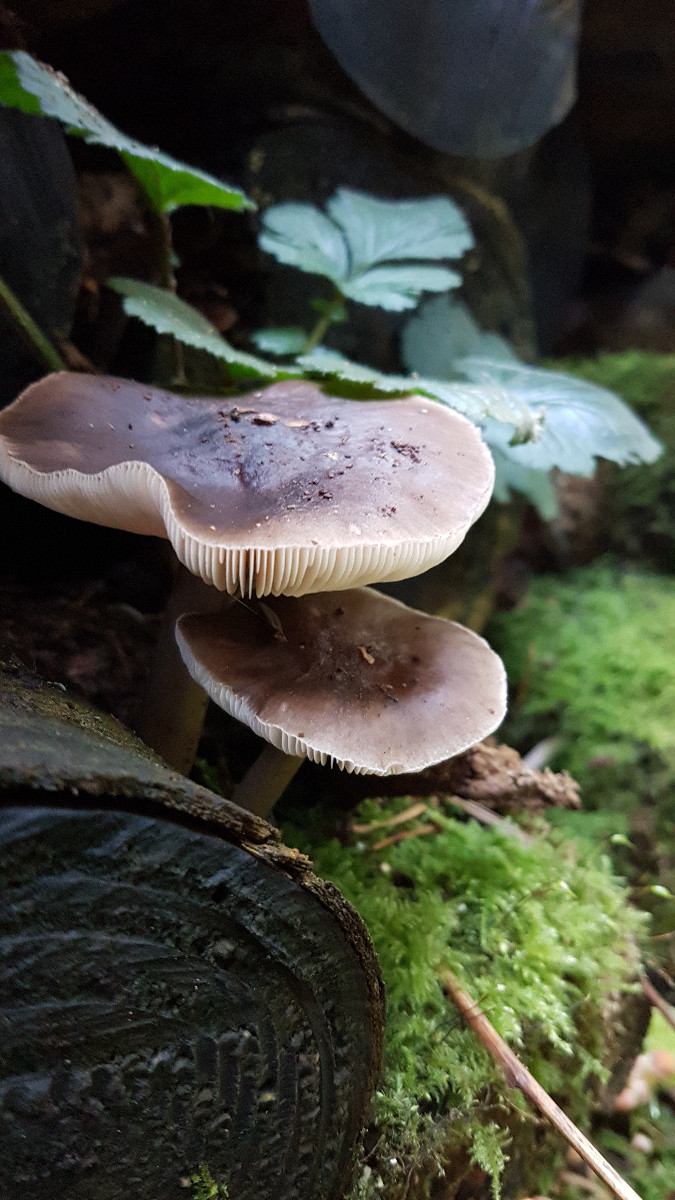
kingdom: Fungi
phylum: Basidiomycota
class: Agaricomycetes
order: Agaricales
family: Pluteaceae
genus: Pluteus
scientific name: Pluteus
